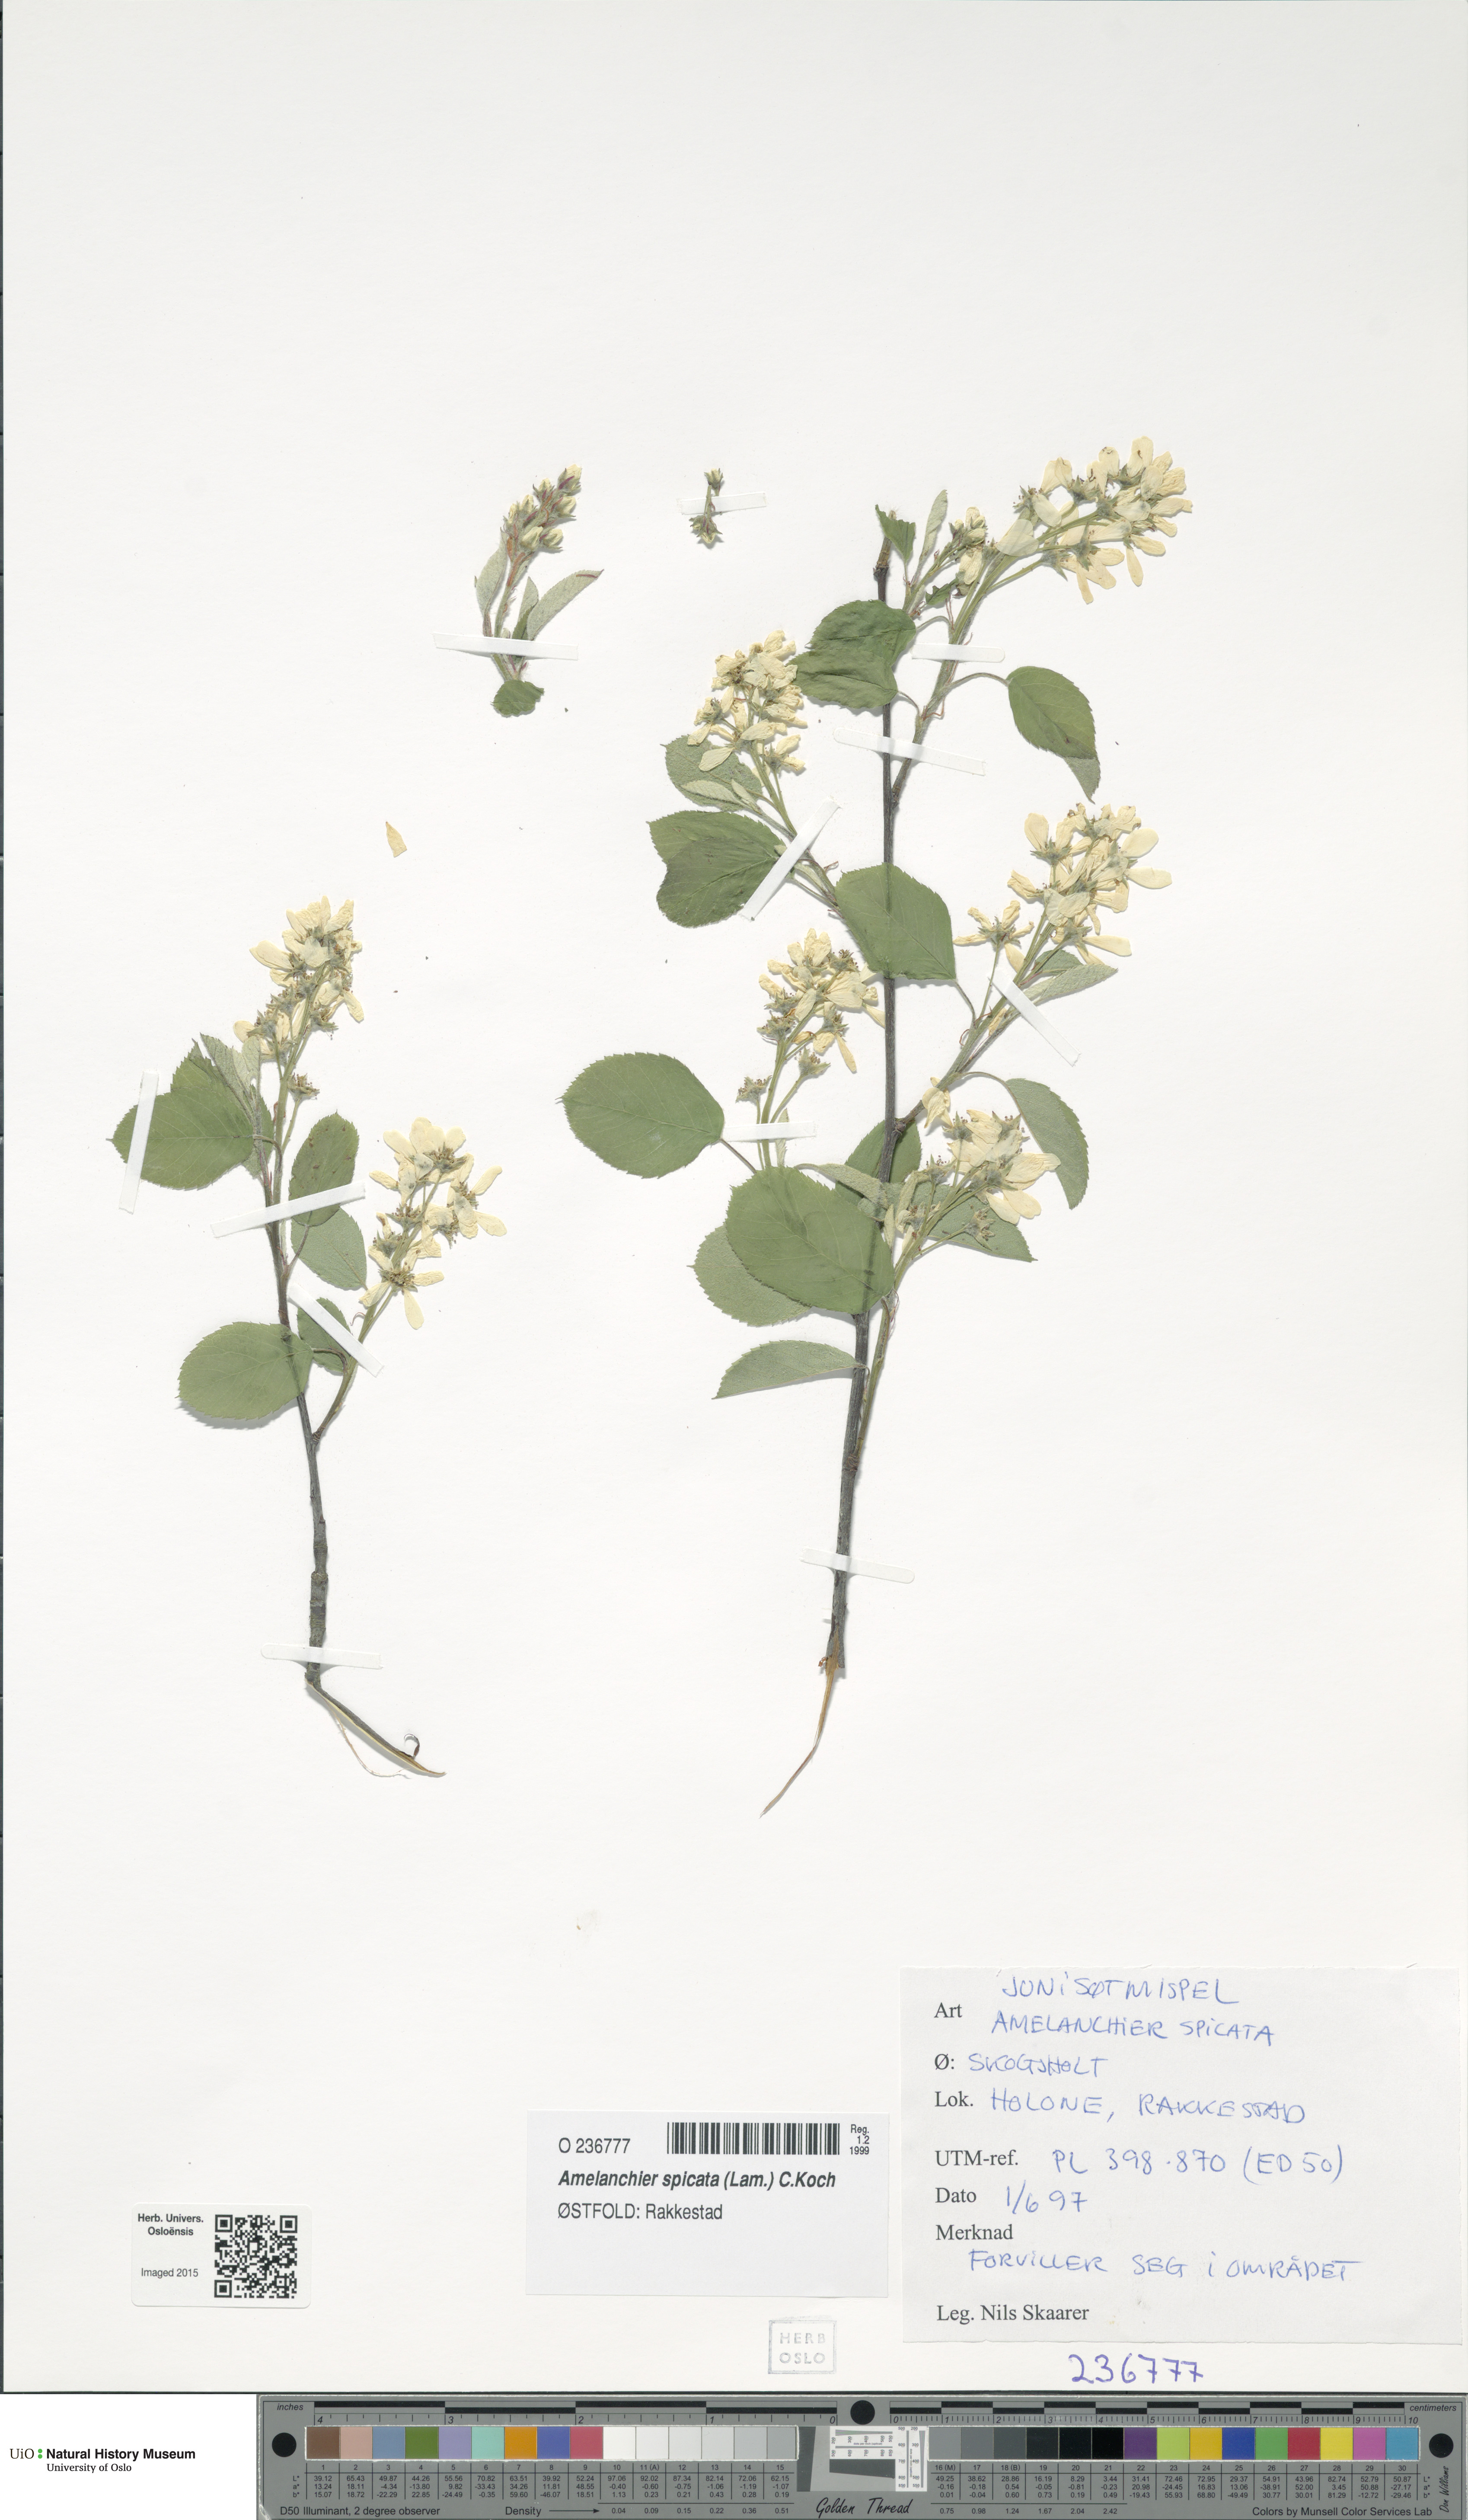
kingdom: Plantae
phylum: Tracheophyta
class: Magnoliopsida
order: Rosales
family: Rosaceae
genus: Amelanchier
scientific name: Amelanchier humilis
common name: Low juneberry
